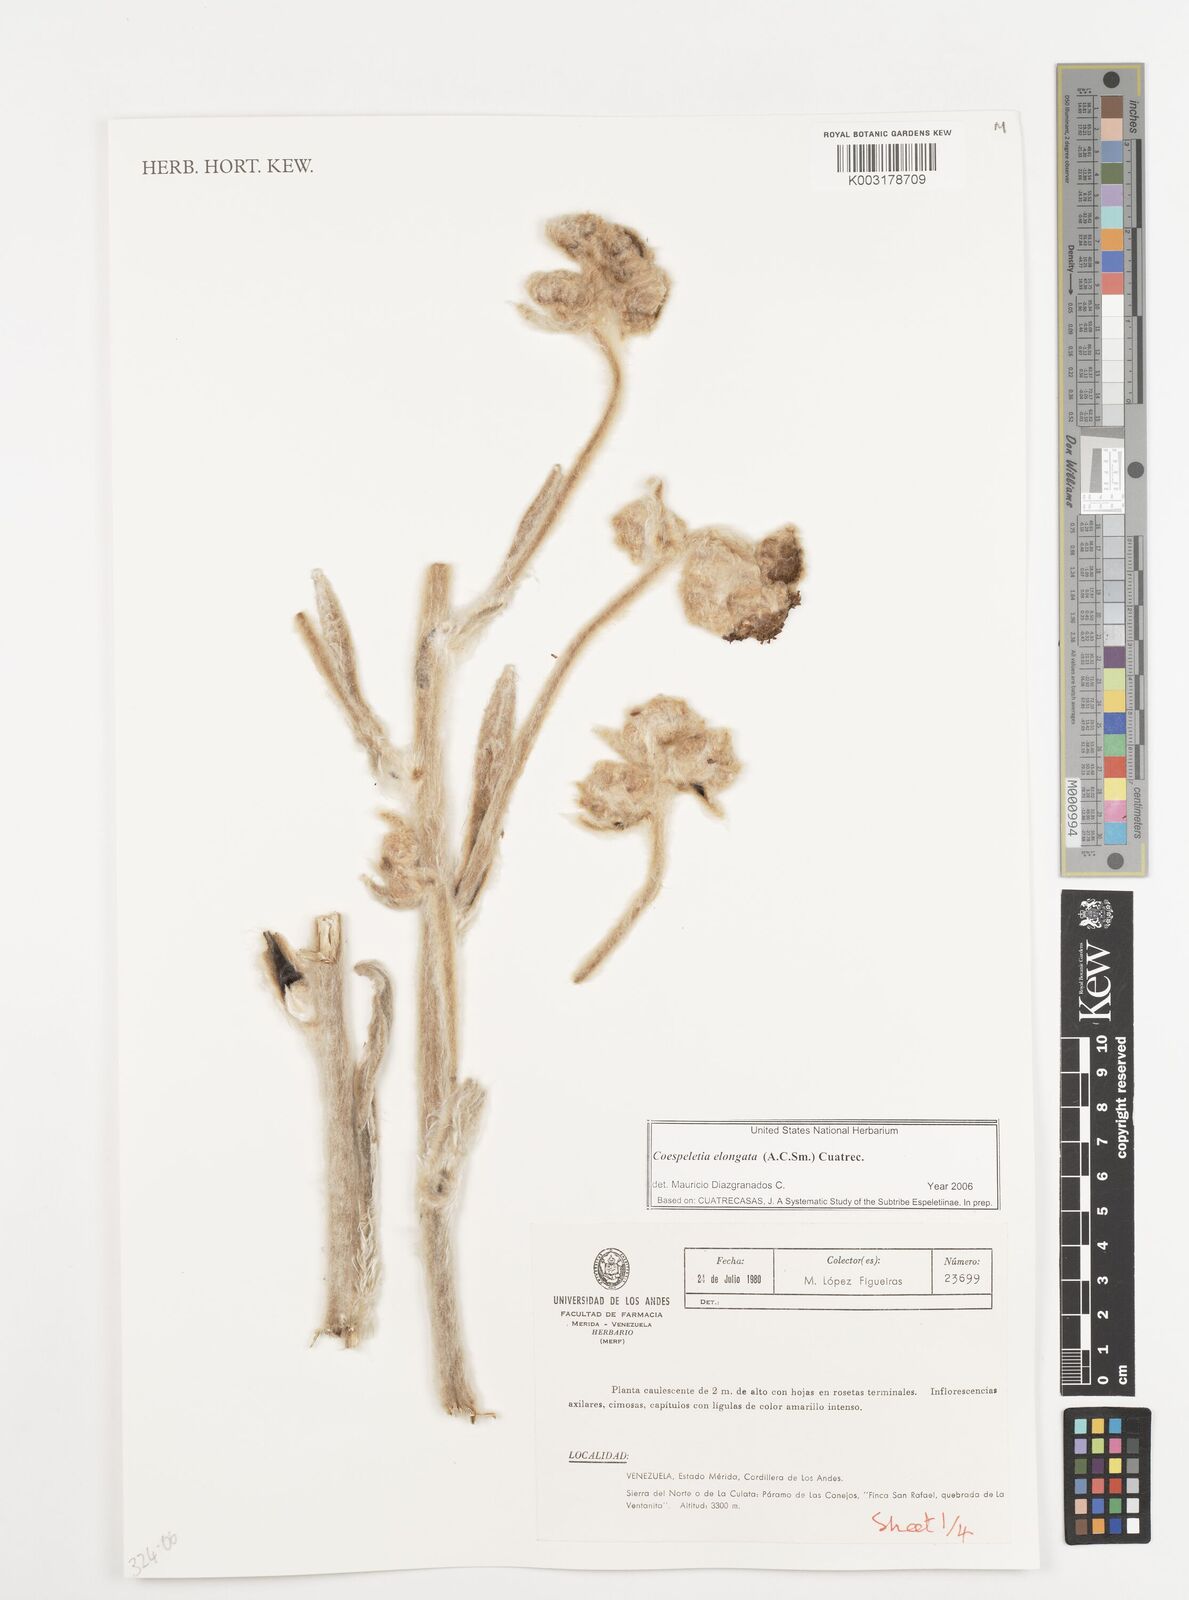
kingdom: Plantae
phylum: Tracheophyta
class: Magnoliopsida
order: Asterales
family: Asteraceae
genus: Espeletia
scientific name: Espeletia elongata
